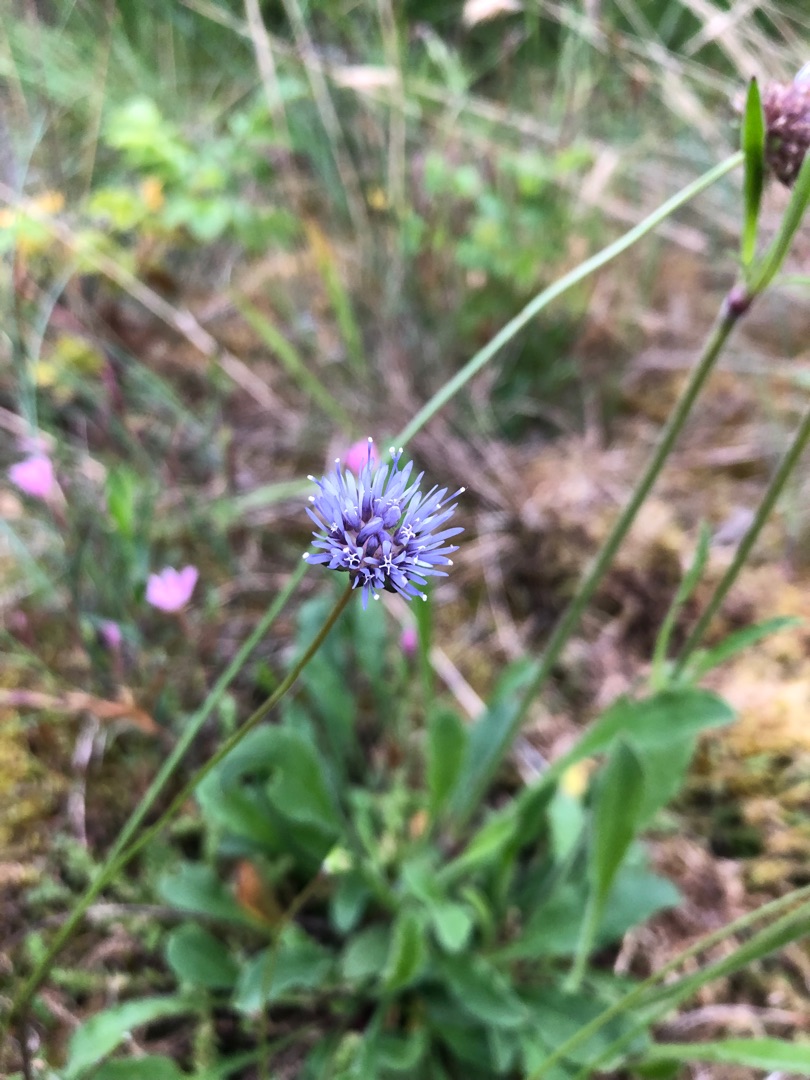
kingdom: Plantae
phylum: Tracheophyta
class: Magnoliopsida
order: Asterales
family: Campanulaceae
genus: Jasione
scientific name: Jasione montana
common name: Blåmunke
